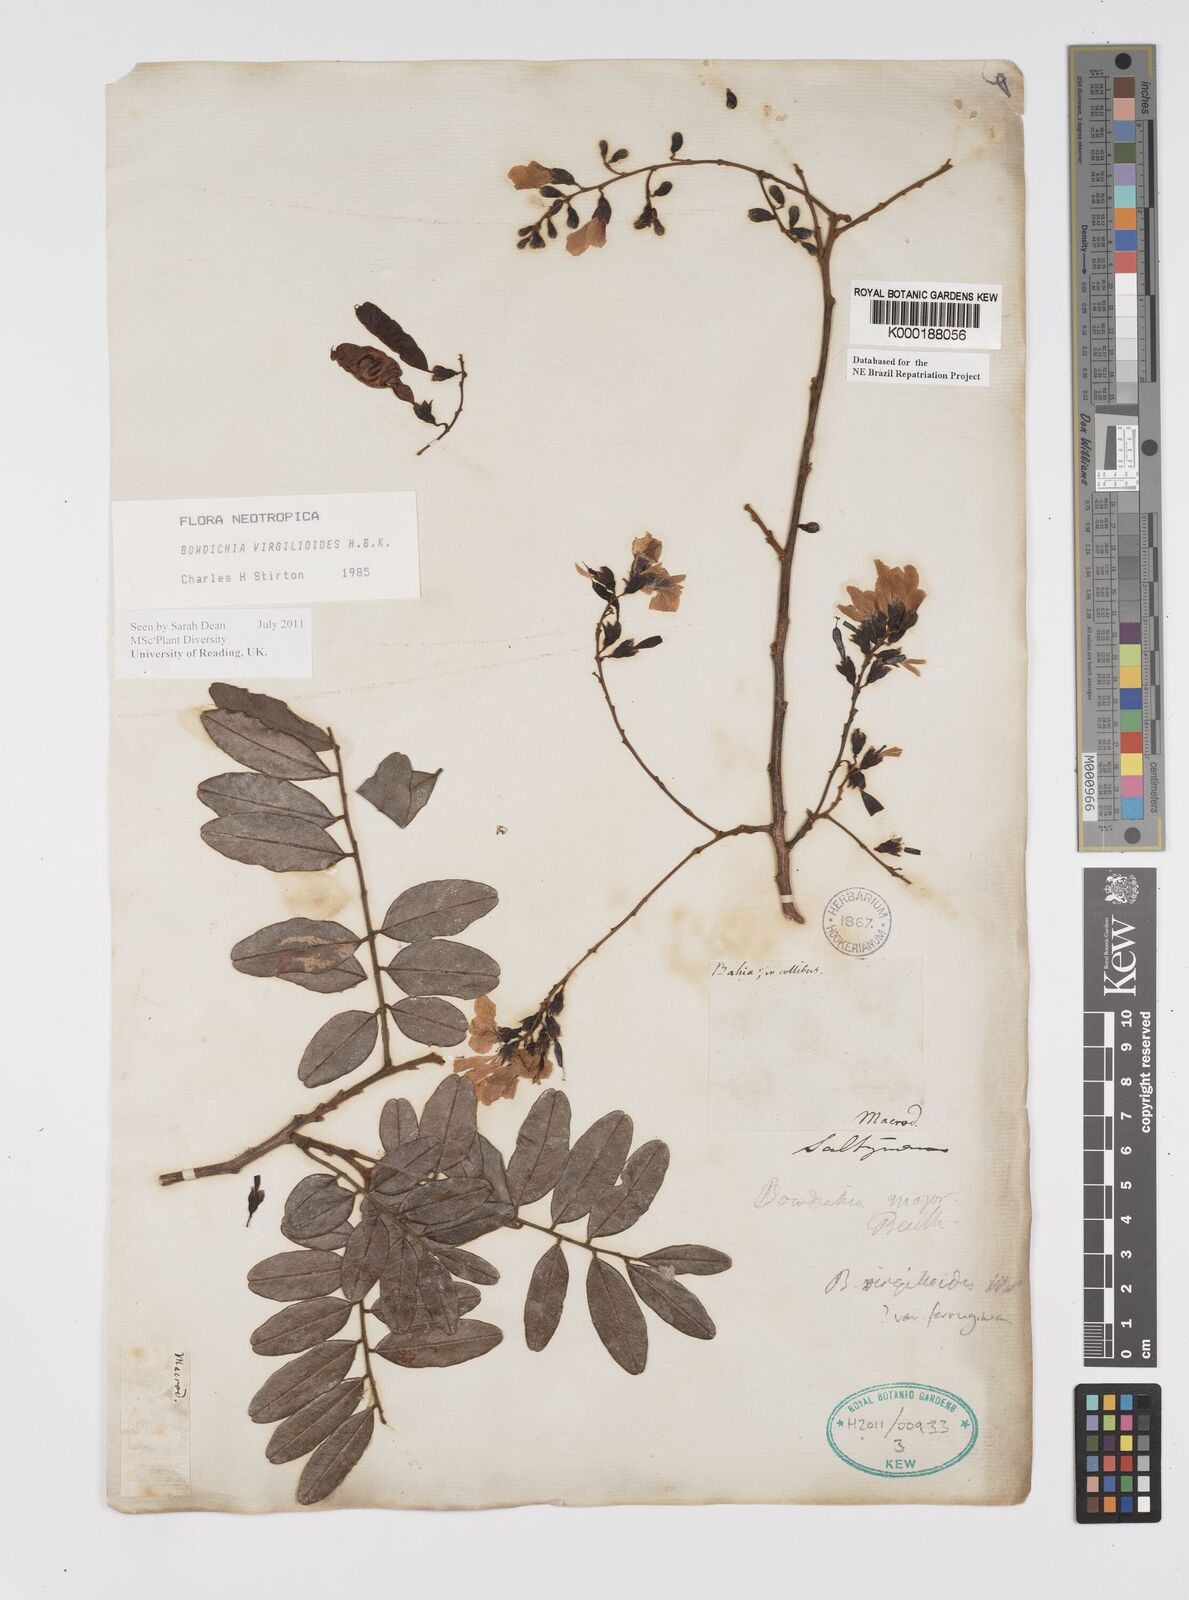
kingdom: Plantae
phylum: Tracheophyta
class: Magnoliopsida
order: Fabales
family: Fabaceae
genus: Bowdichia
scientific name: Bowdichia virgilioides
